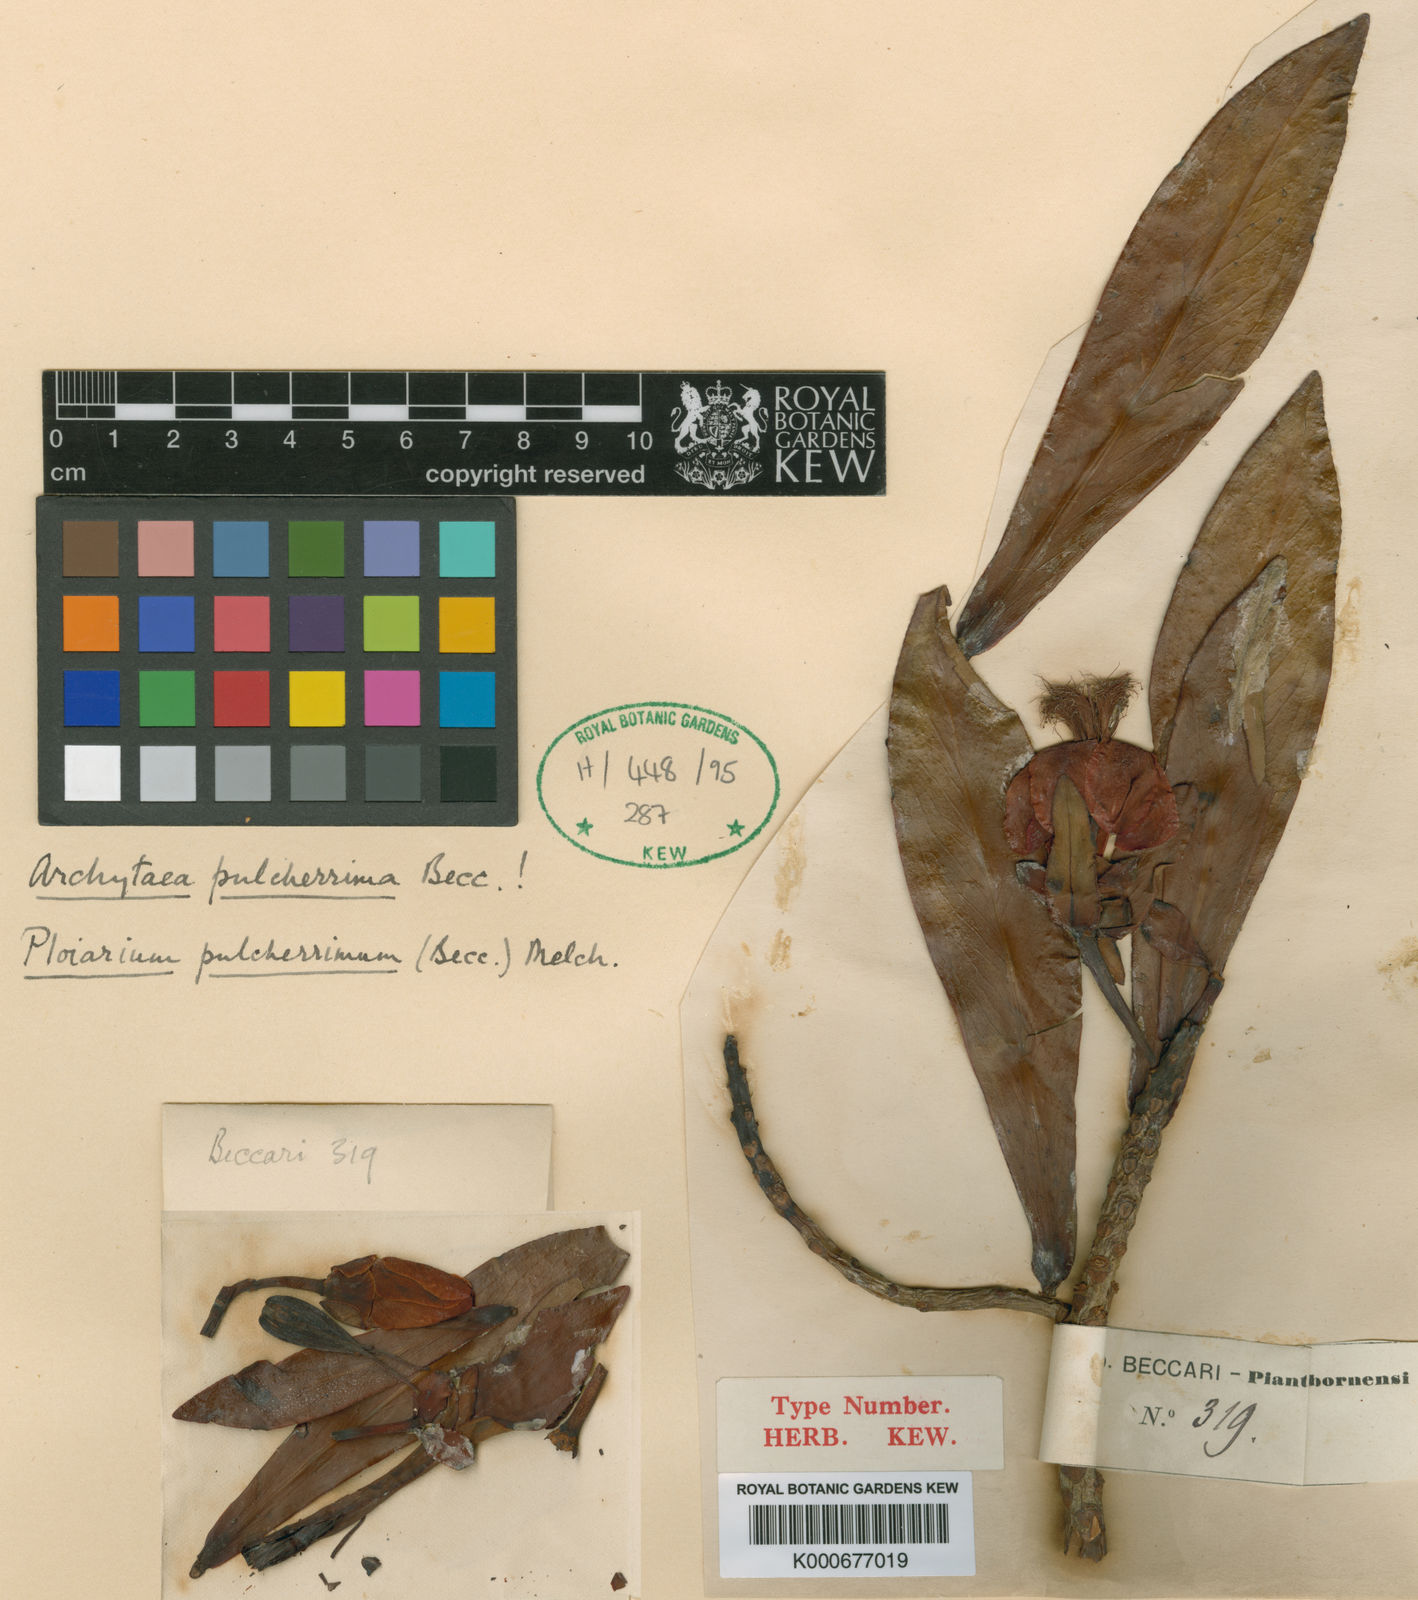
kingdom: Plantae
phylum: Tracheophyta
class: Magnoliopsida
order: Malpighiales
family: Bonnetiaceae
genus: Ploiarium
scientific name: Ploiarium alternifolium
